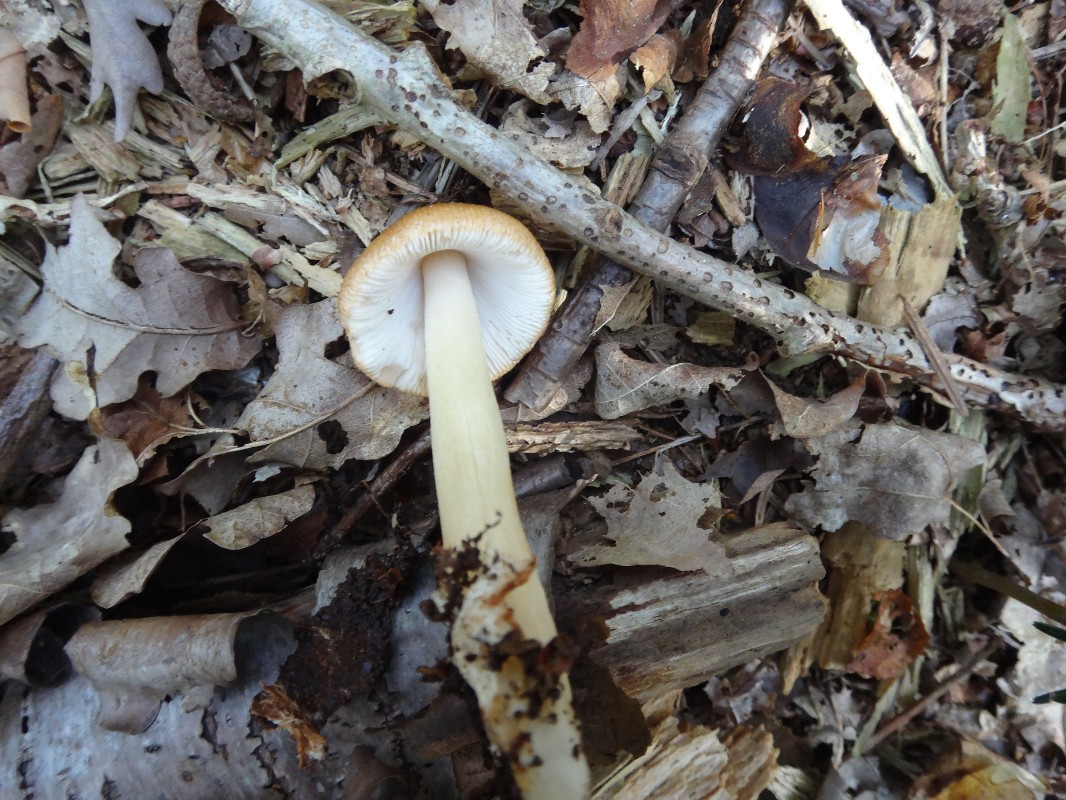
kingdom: Fungi
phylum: Basidiomycota
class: Agaricomycetes
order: Agaricales
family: Amanitaceae
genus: Amanita
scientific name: Amanita fulva
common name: brun kam-fluesvamp
